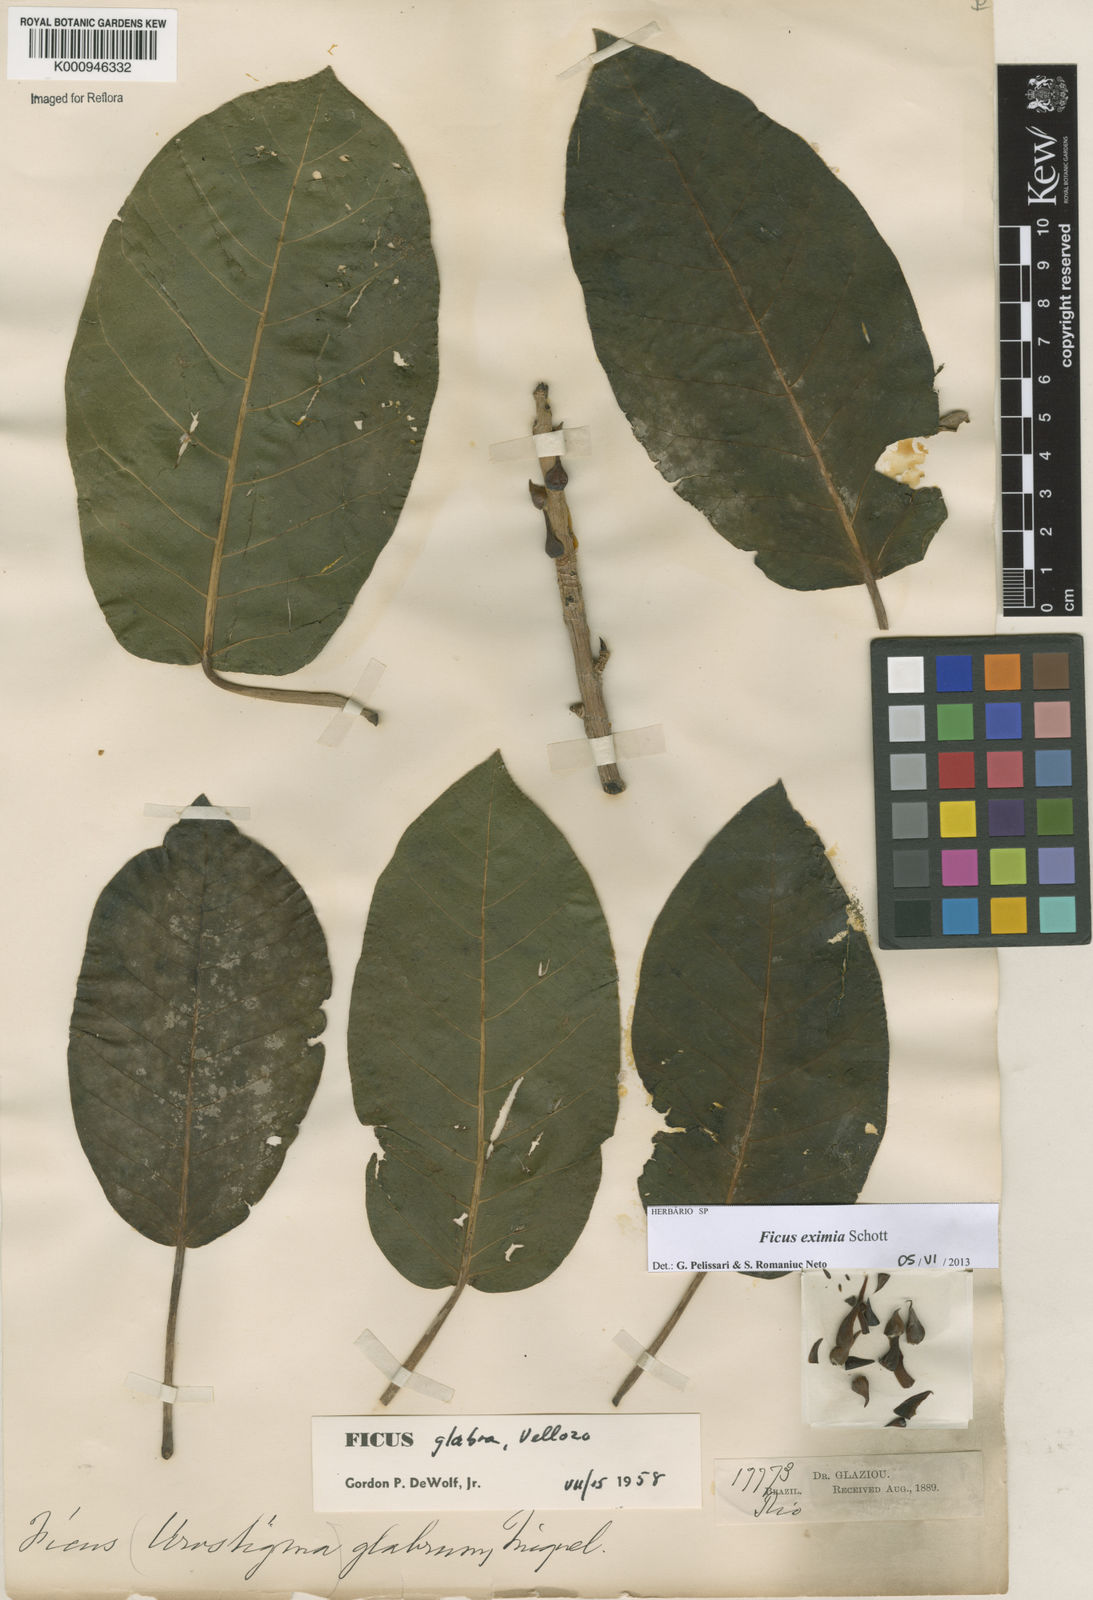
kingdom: Plantae
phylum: Tracheophyta
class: Magnoliopsida
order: Rosales
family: Moraceae
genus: Ficus
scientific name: Ficus eximia
